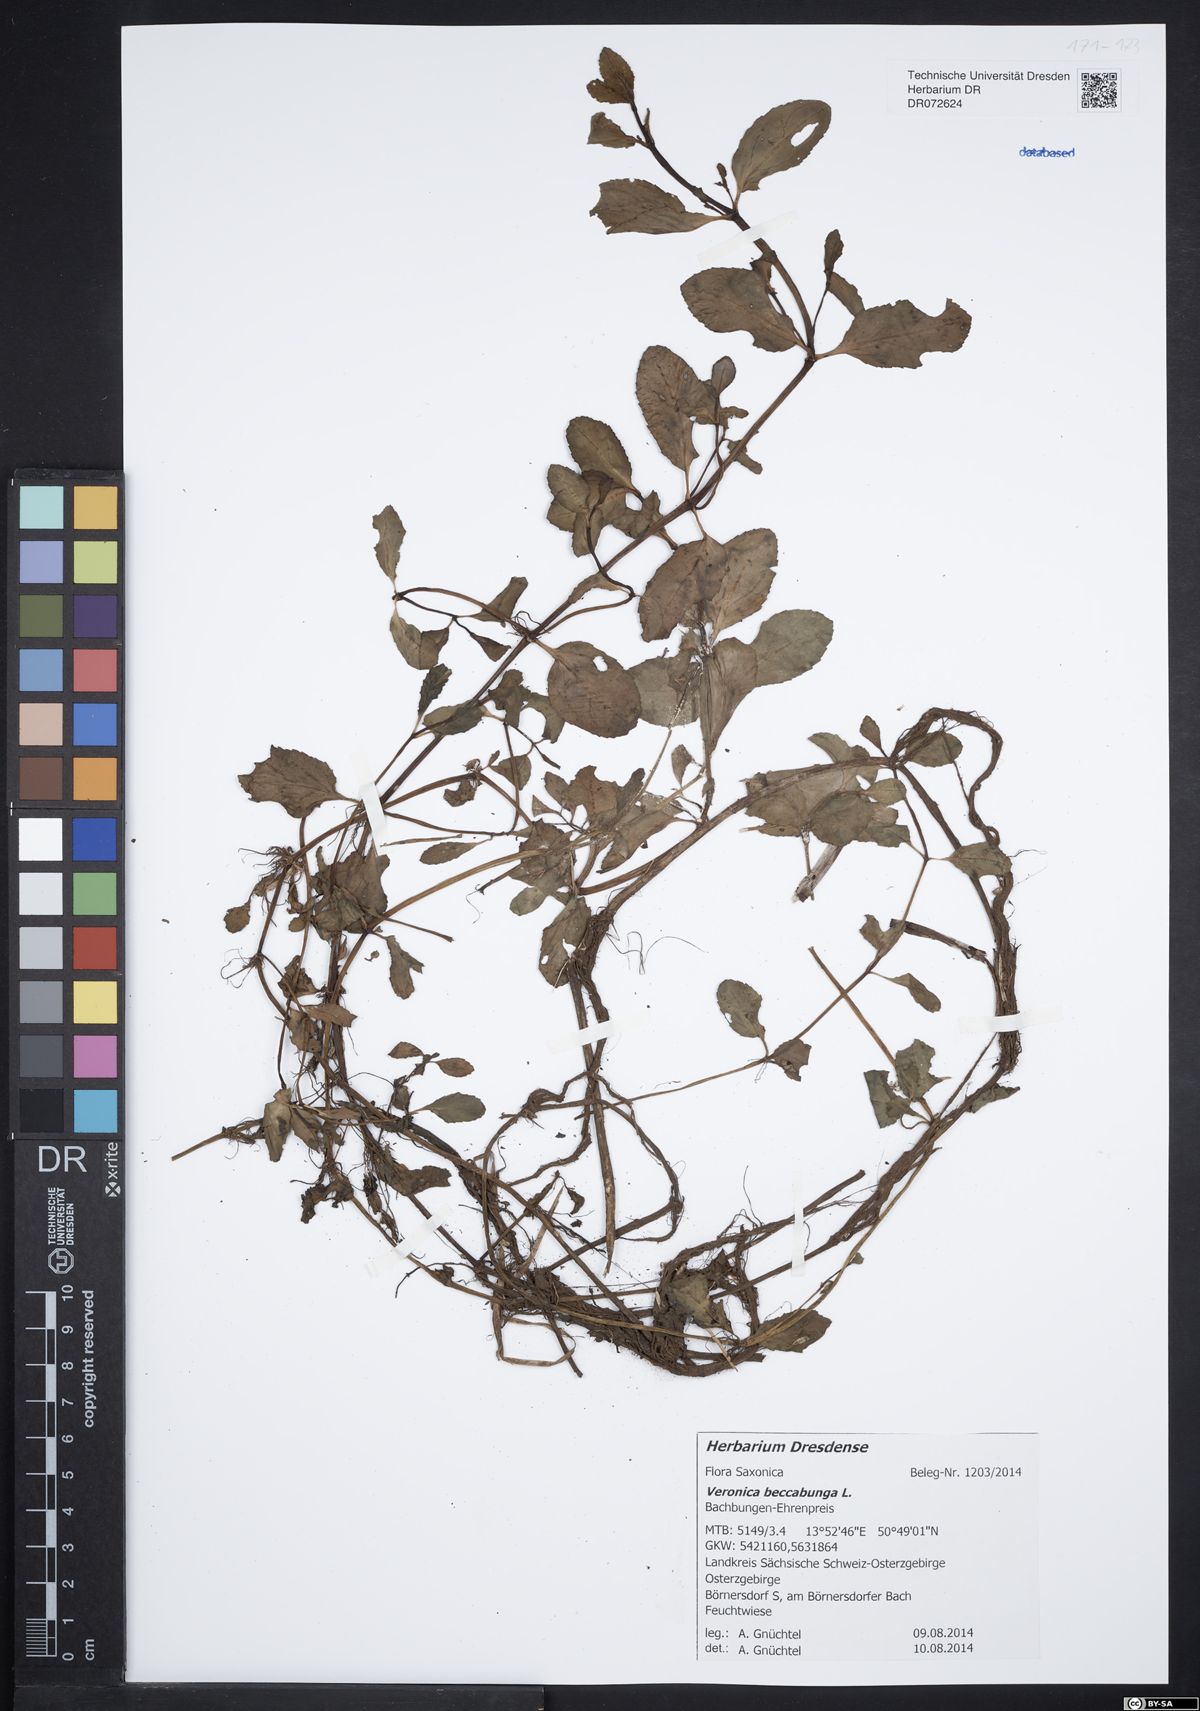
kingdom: Plantae
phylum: Tracheophyta
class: Magnoliopsida
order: Lamiales
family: Plantaginaceae
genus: Veronica
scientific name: Veronica beccabunga
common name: Brooklime
